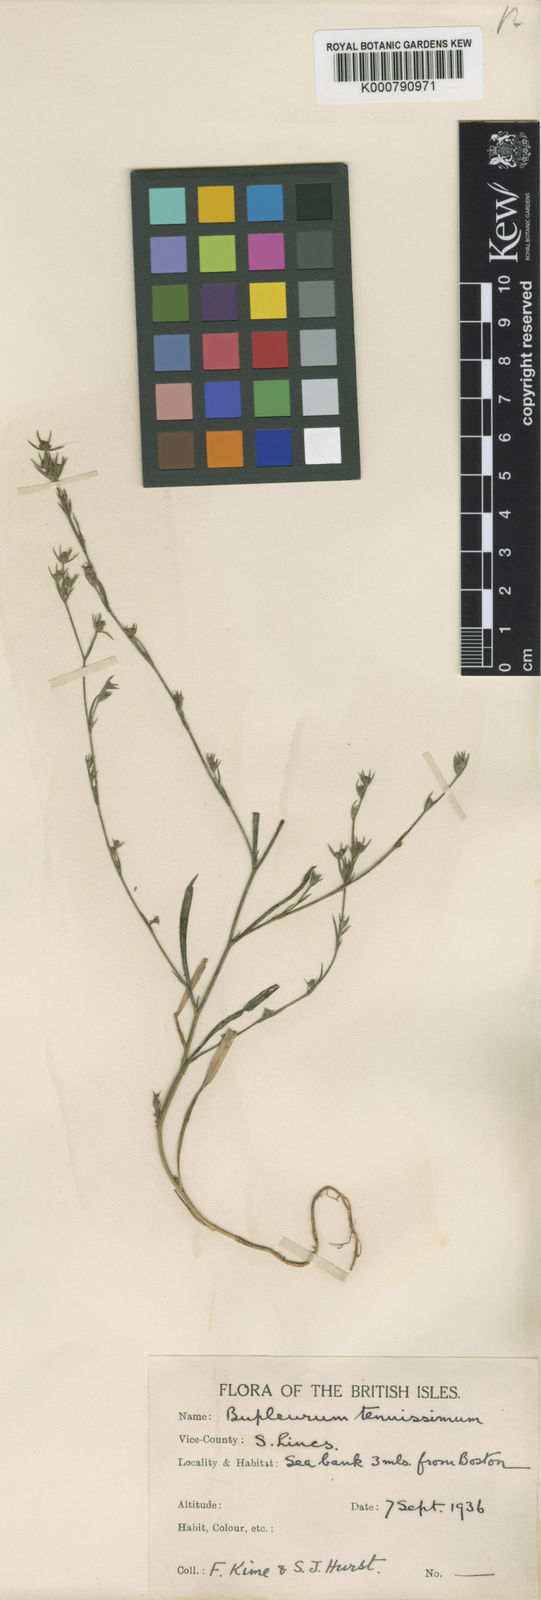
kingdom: Plantae
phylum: Tracheophyta
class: Magnoliopsida
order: Apiales
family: Apiaceae
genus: Bupleurum
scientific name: Bupleurum tenuissimum
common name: Slender hare's-ear
